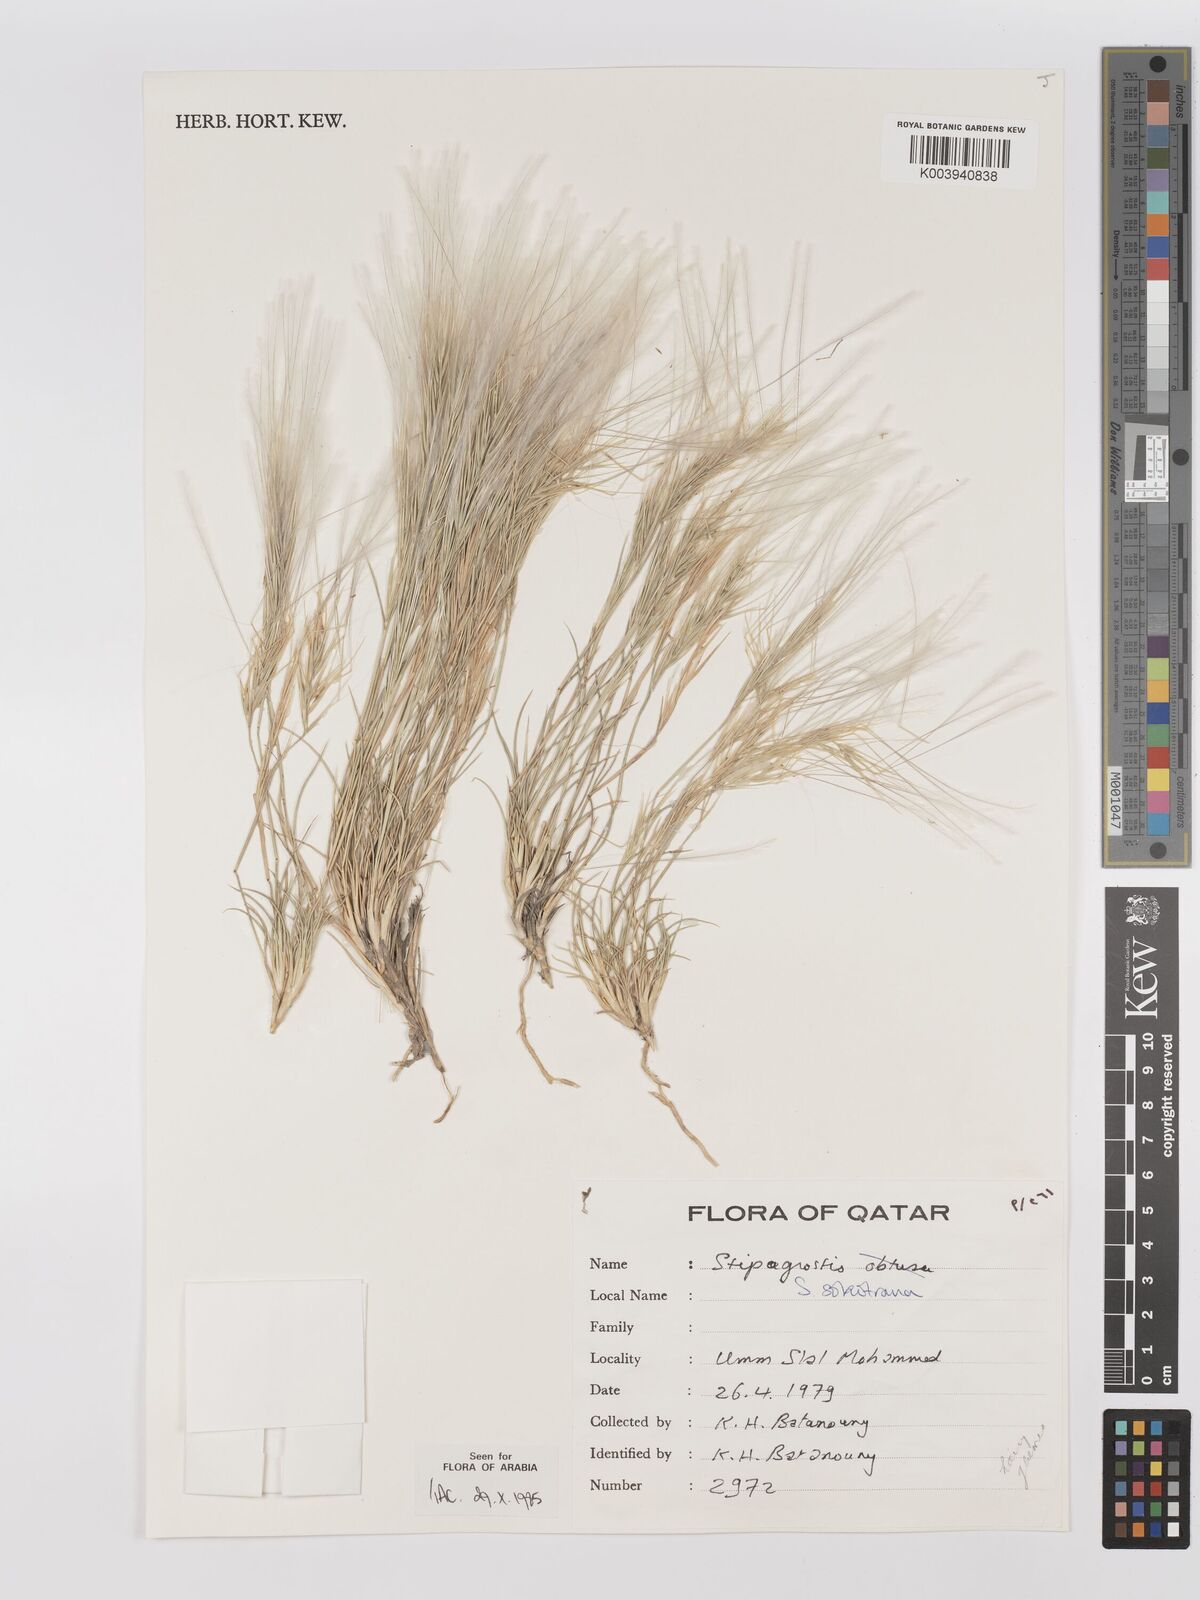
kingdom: Plantae
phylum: Tracheophyta
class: Liliopsida
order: Poales
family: Poaceae
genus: Stipagrostis
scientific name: Stipagrostis sokotrana
